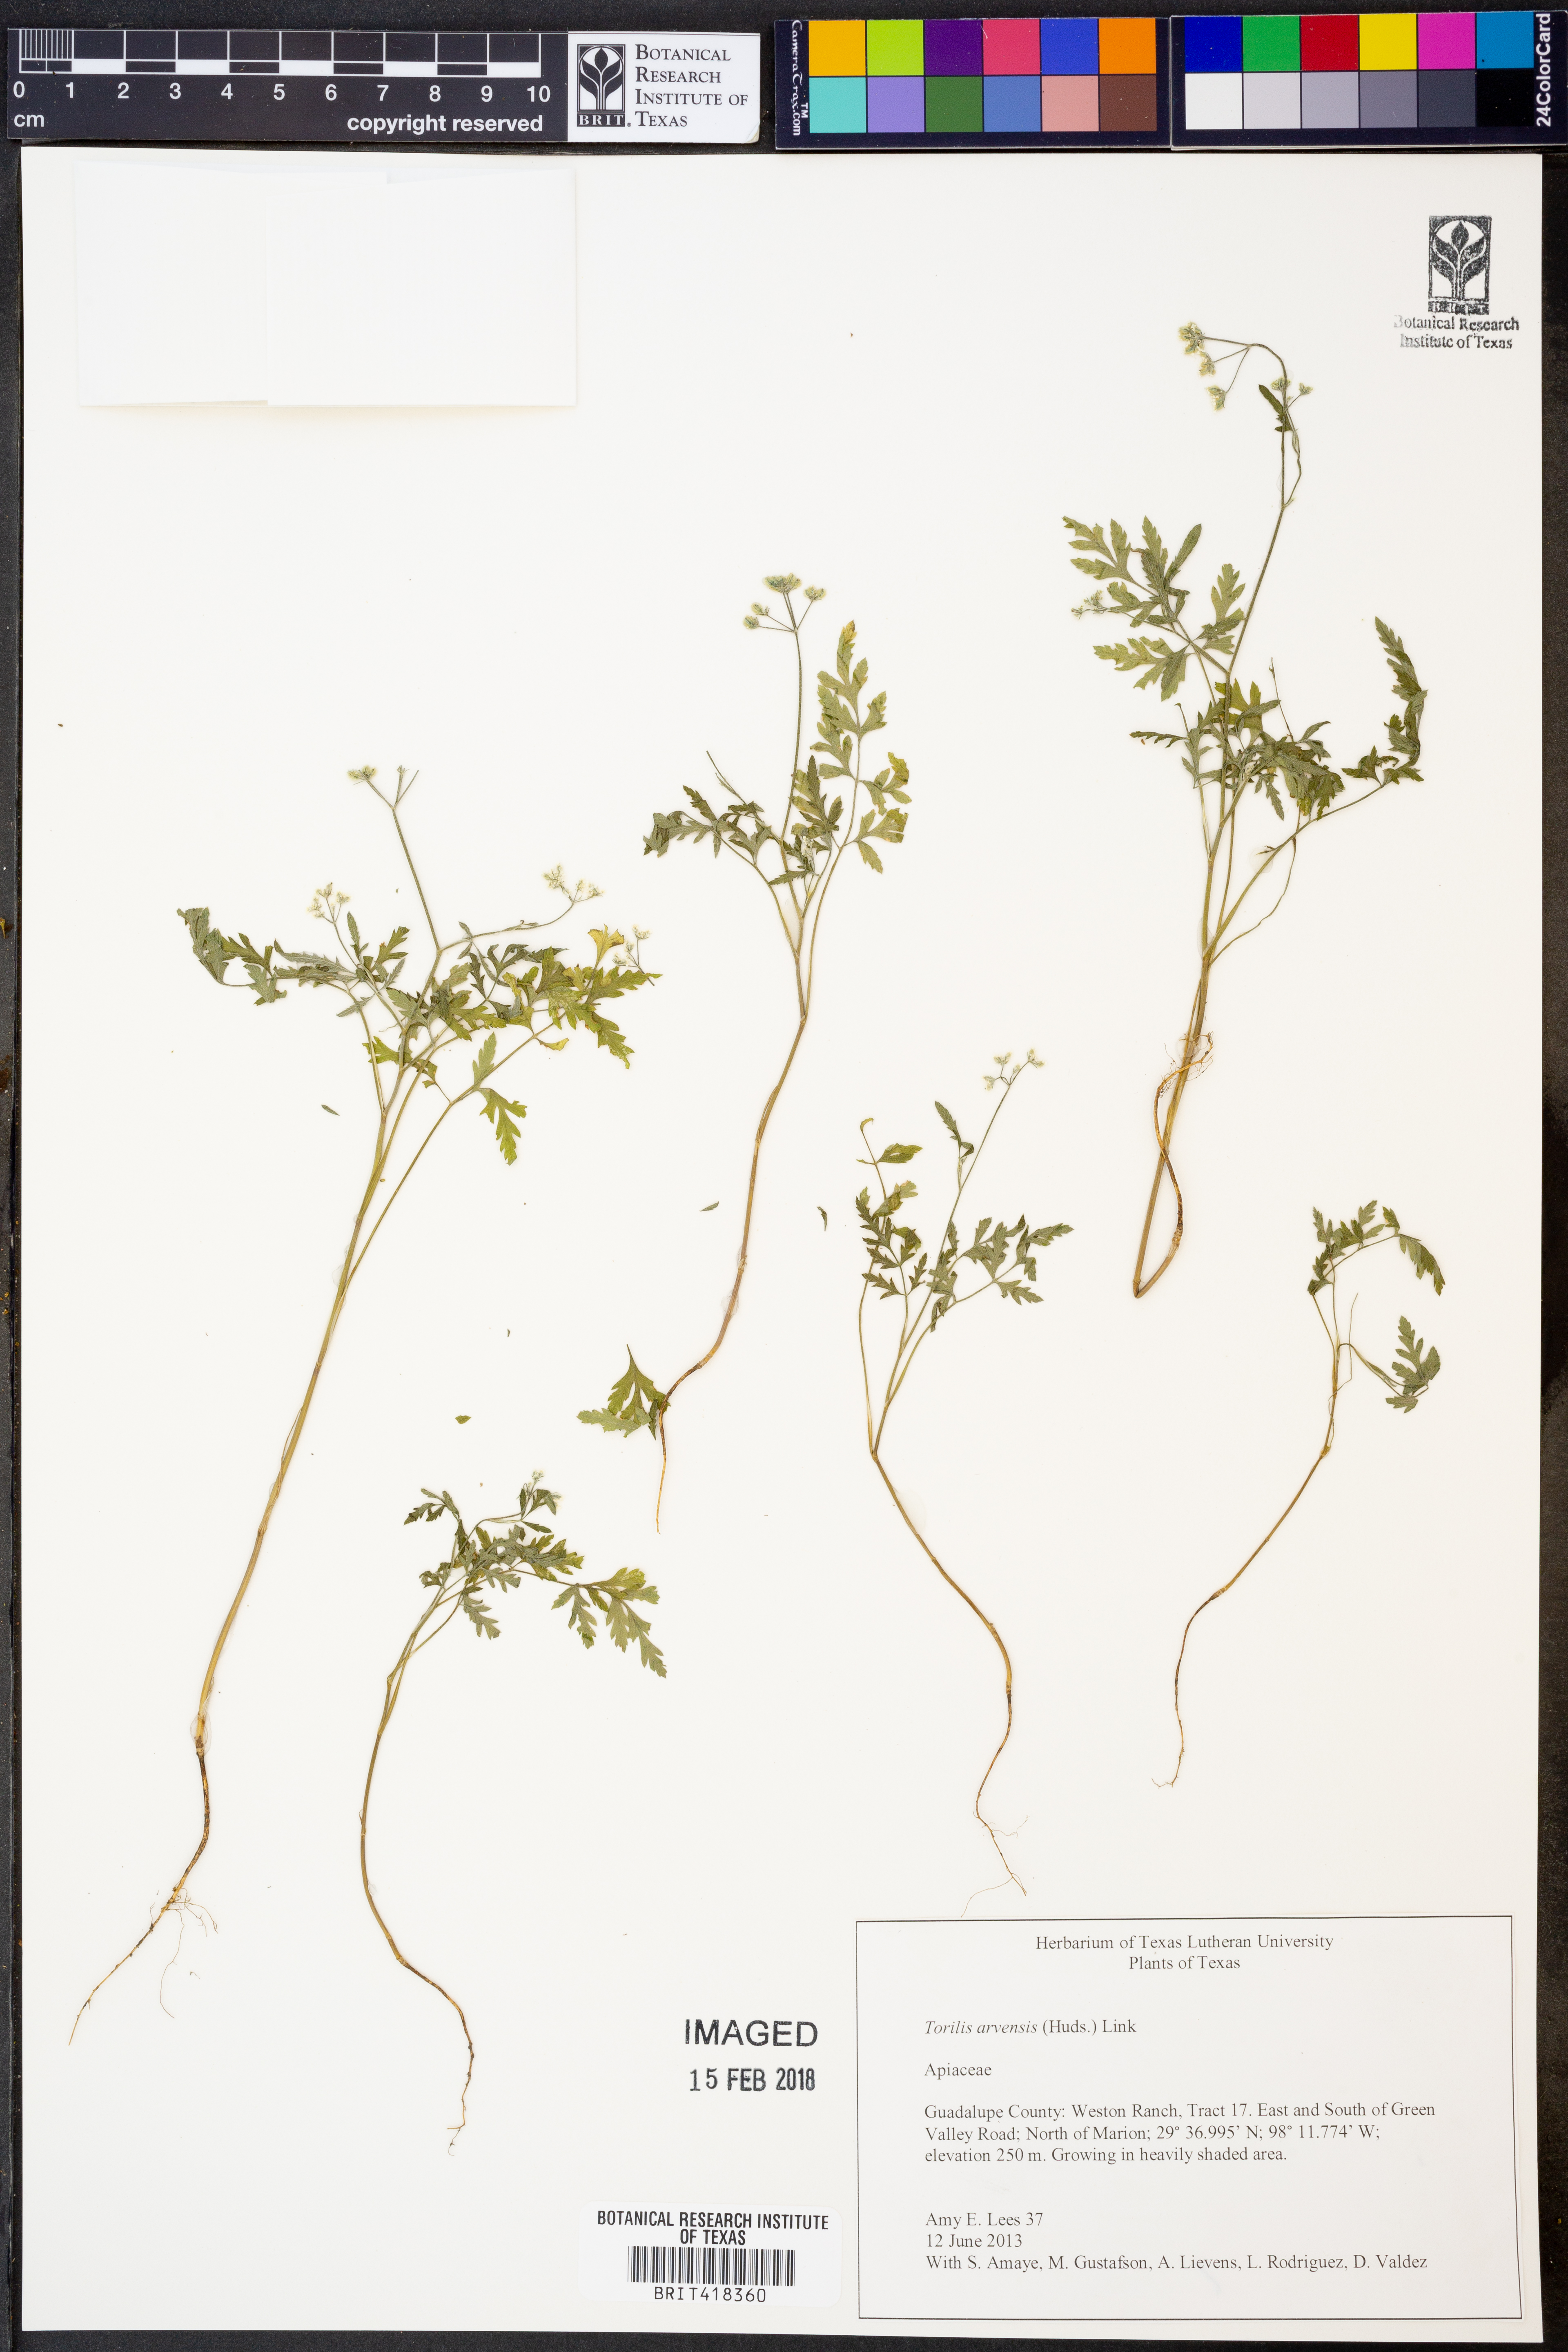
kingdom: Plantae
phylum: Tracheophyta
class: Magnoliopsida
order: Apiales
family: Apiaceae
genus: Torilis
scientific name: Torilis arvensis
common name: Spreading hedge-parsley
